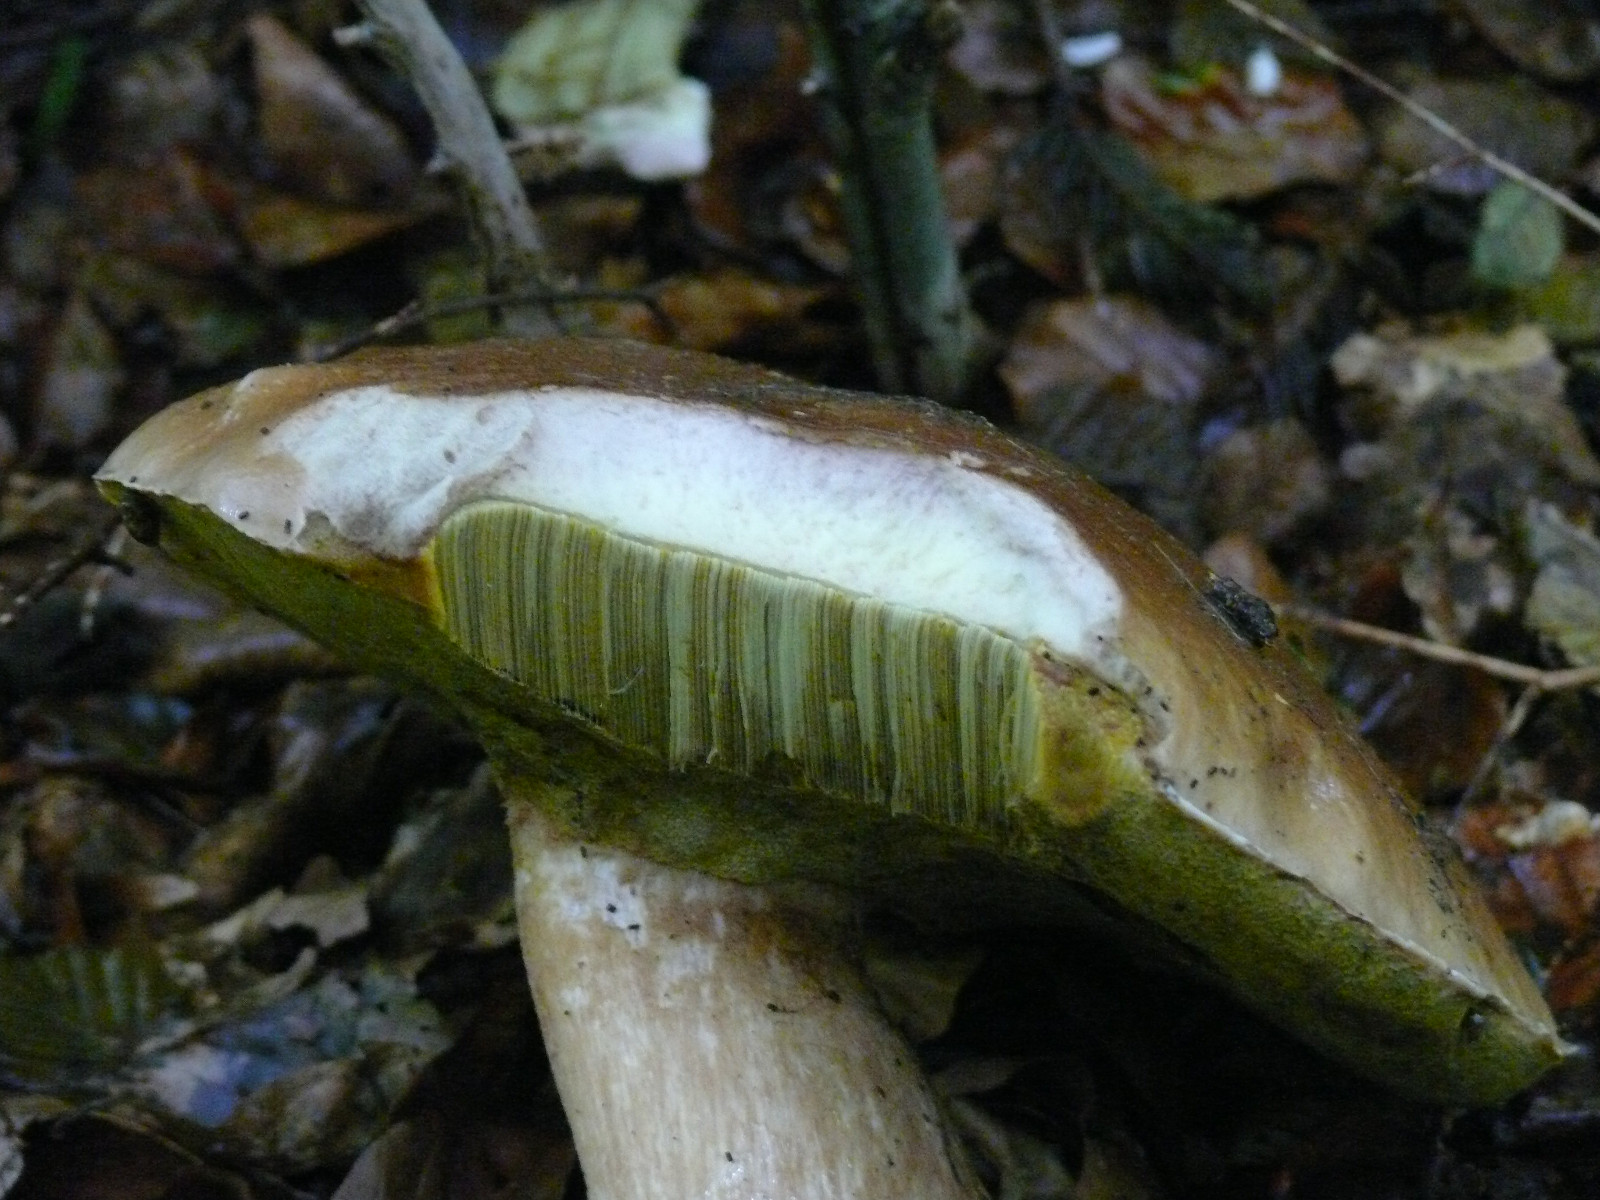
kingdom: Fungi
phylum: Basidiomycota
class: Agaricomycetes
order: Boletales
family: Boletaceae
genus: Boletus
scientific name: Boletus edulis
